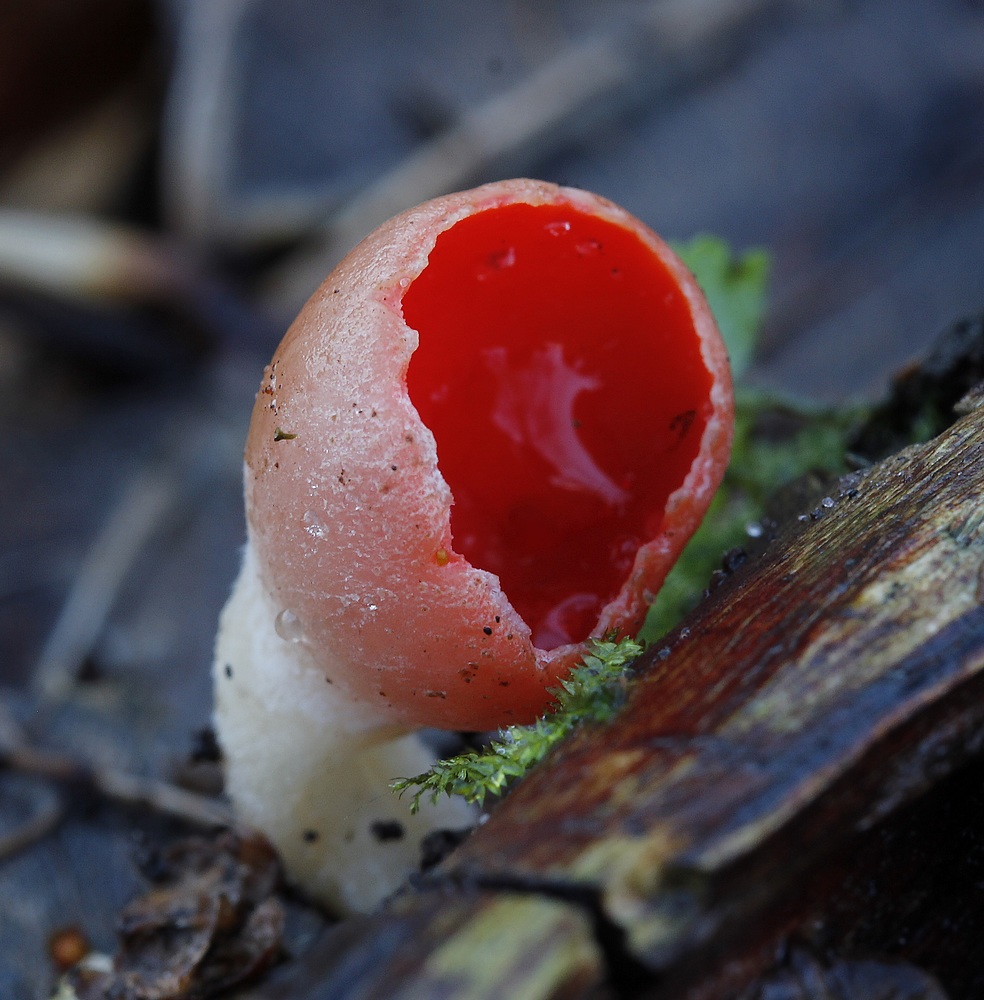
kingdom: Fungi
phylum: Ascomycota
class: Pezizomycetes
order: Pezizales
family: Sarcoscyphaceae
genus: Sarcoscypha
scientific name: Sarcoscypha austriaca
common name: krølhåret pragtbæger
